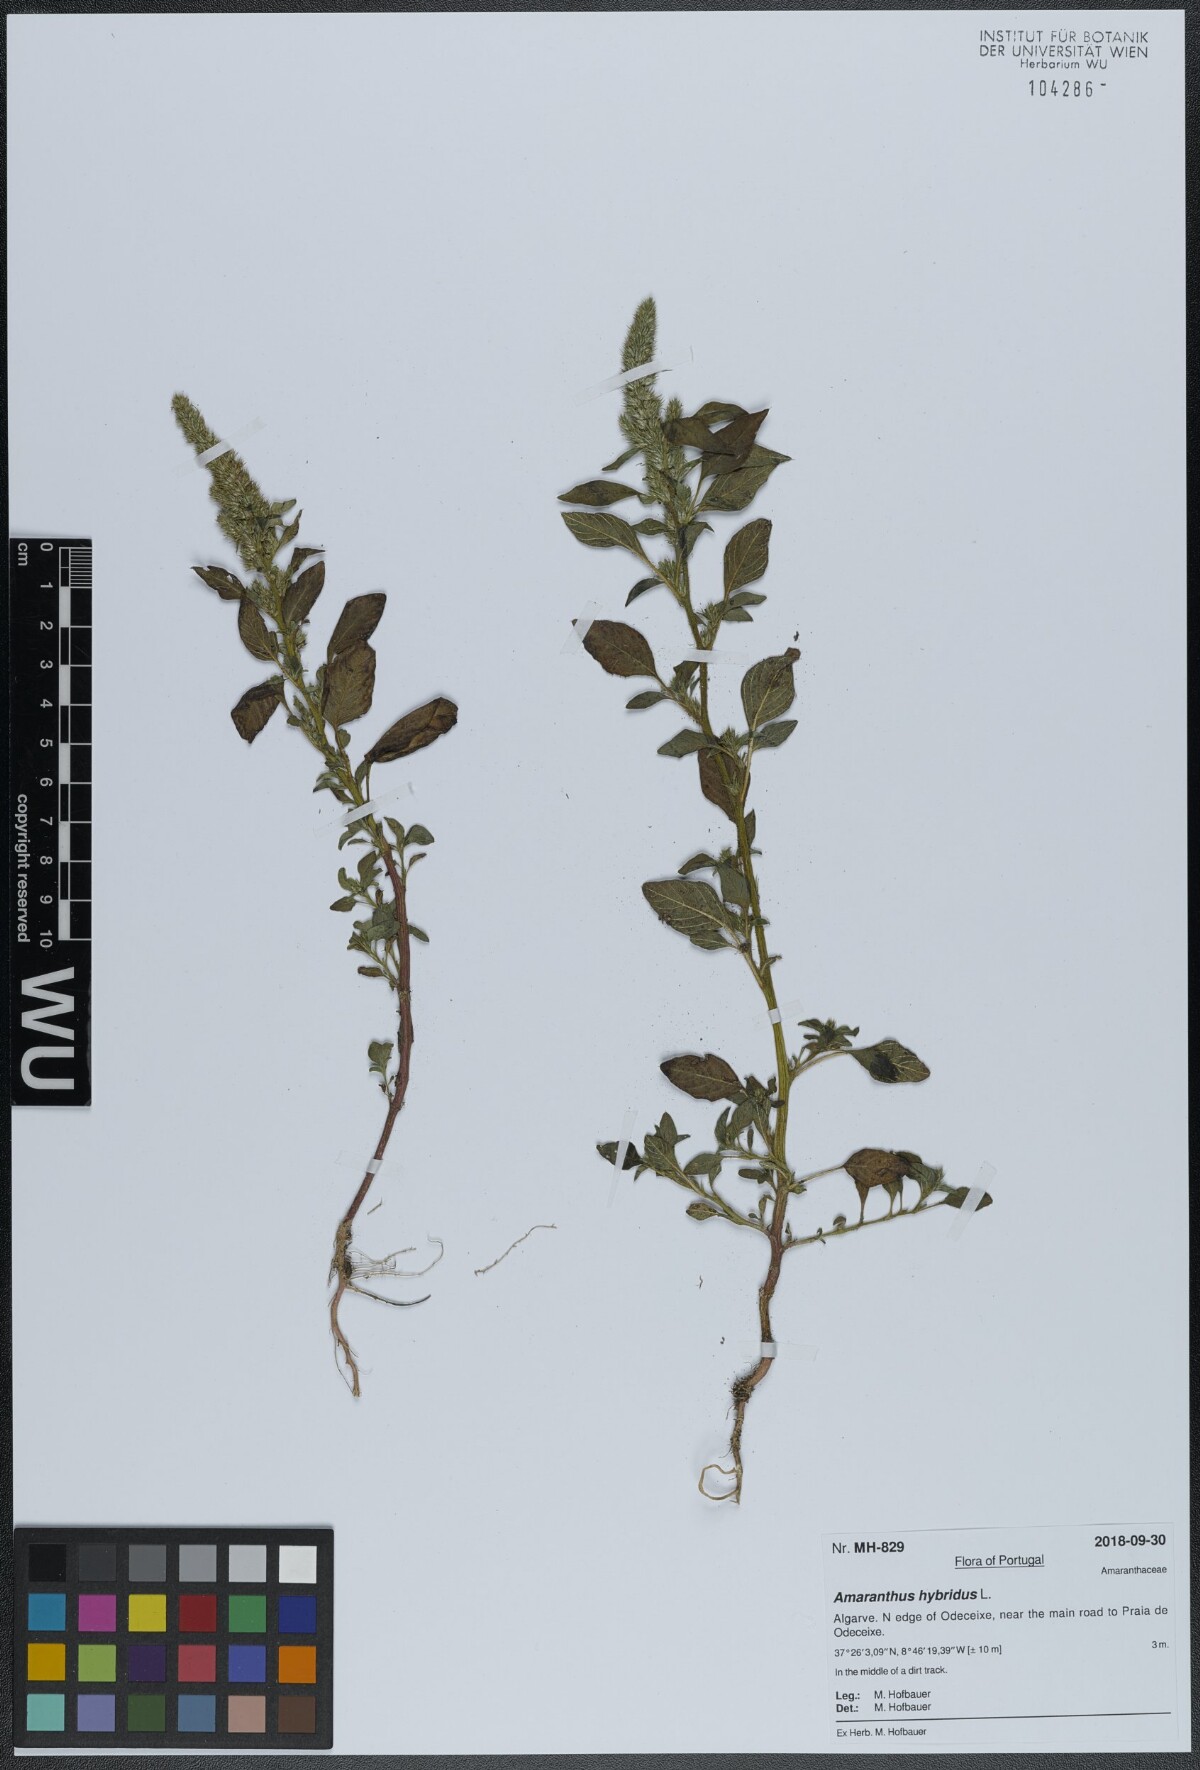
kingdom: Plantae
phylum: Tracheophyta
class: Magnoliopsida
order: Caryophyllales
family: Amaranthaceae
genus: Amaranthus
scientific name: Amaranthus hybridus
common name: Green amaranth
